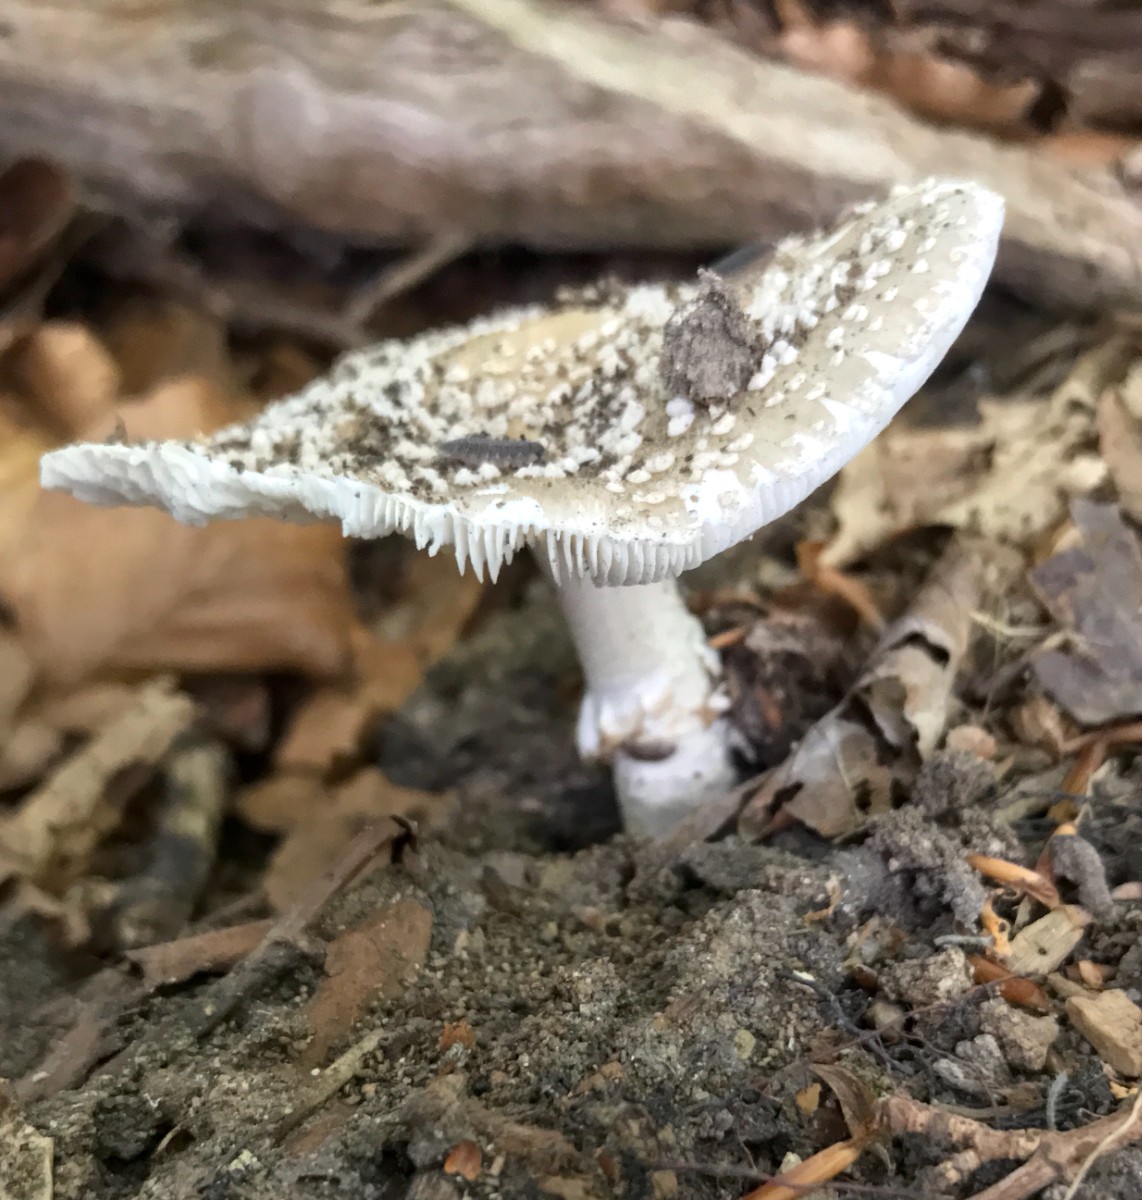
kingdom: Fungi
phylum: Basidiomycota
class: Agaricomycetes
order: Agaricales
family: Amanitaceae
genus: Amanita
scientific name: Amanita pantherina
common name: panter-fluesvamp
